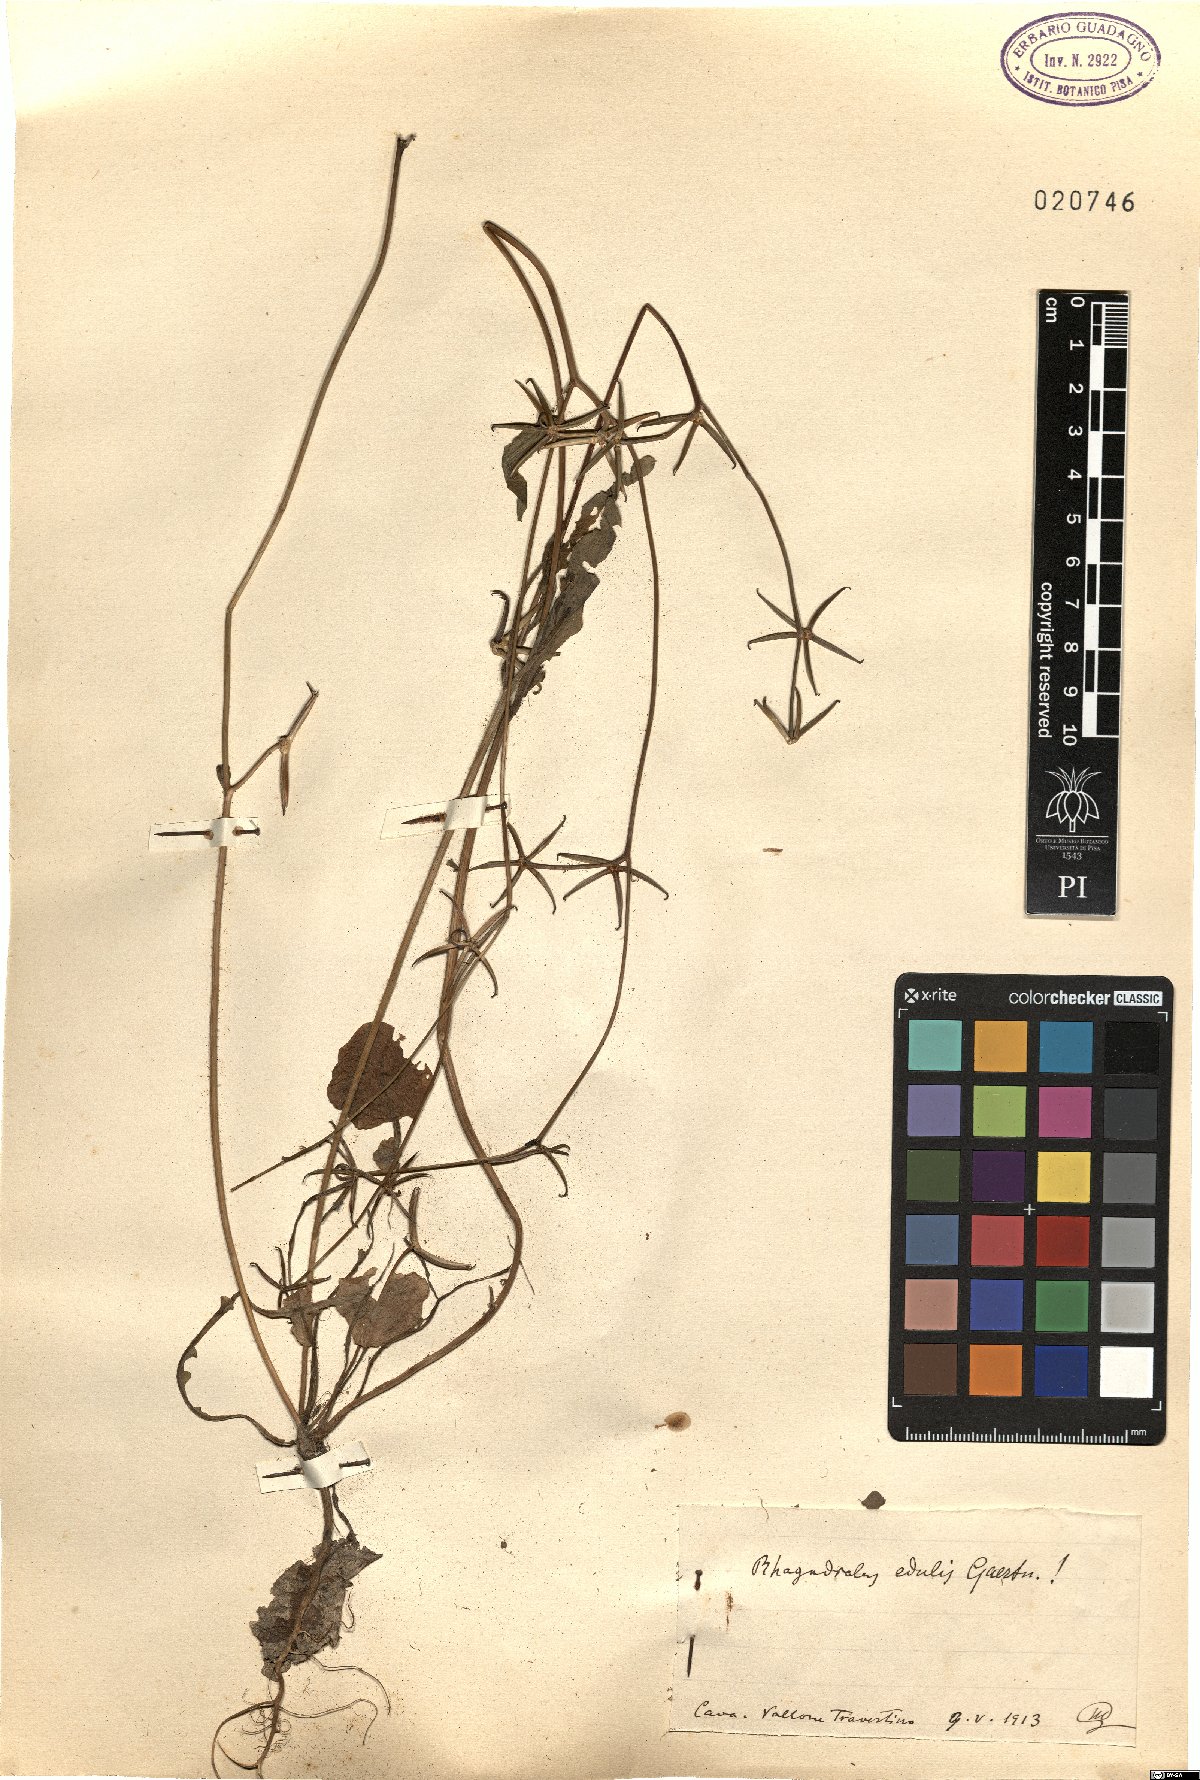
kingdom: Plantae
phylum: Tracheophyta
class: Magnoliopsida
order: Asterales
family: Asteraceae
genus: Rhagadiolus
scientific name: Rhagadiolus edulis
